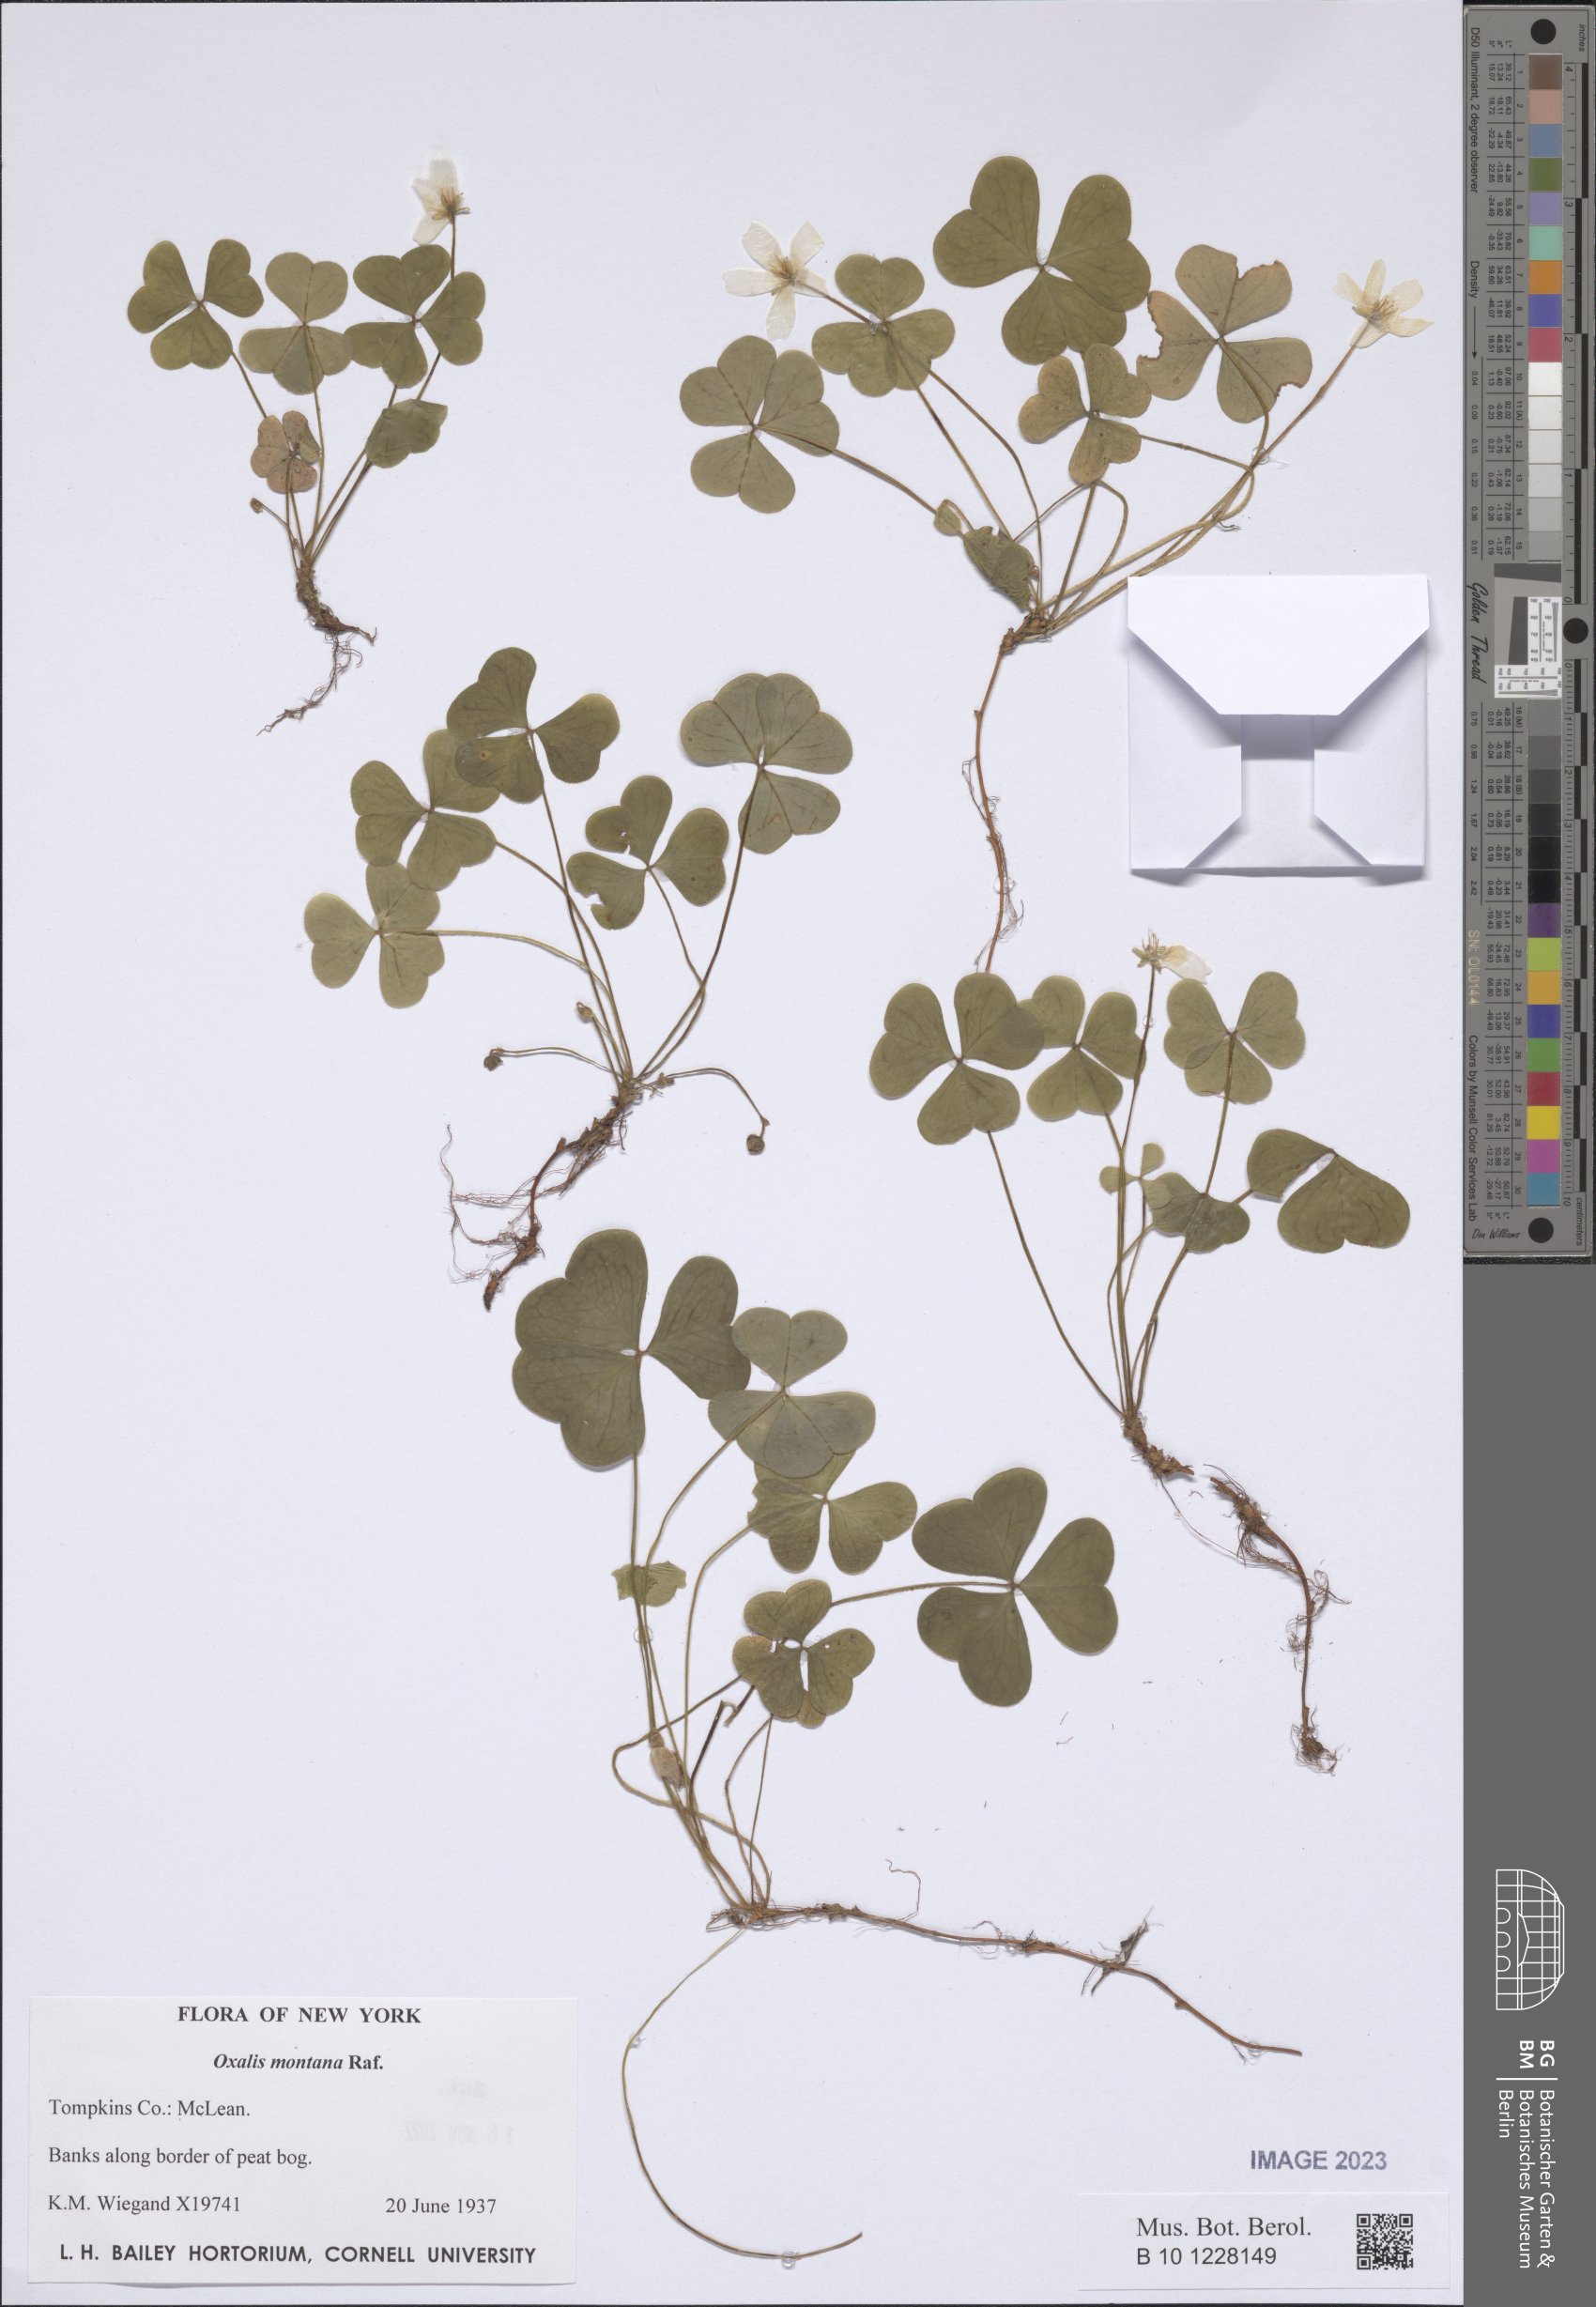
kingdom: Plantae
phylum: Tracheophyta
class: Magnoliopsida
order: Oxalidales
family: Oxalidaceae
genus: Oxalis
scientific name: Oxalis montana
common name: American wood-sorrel
